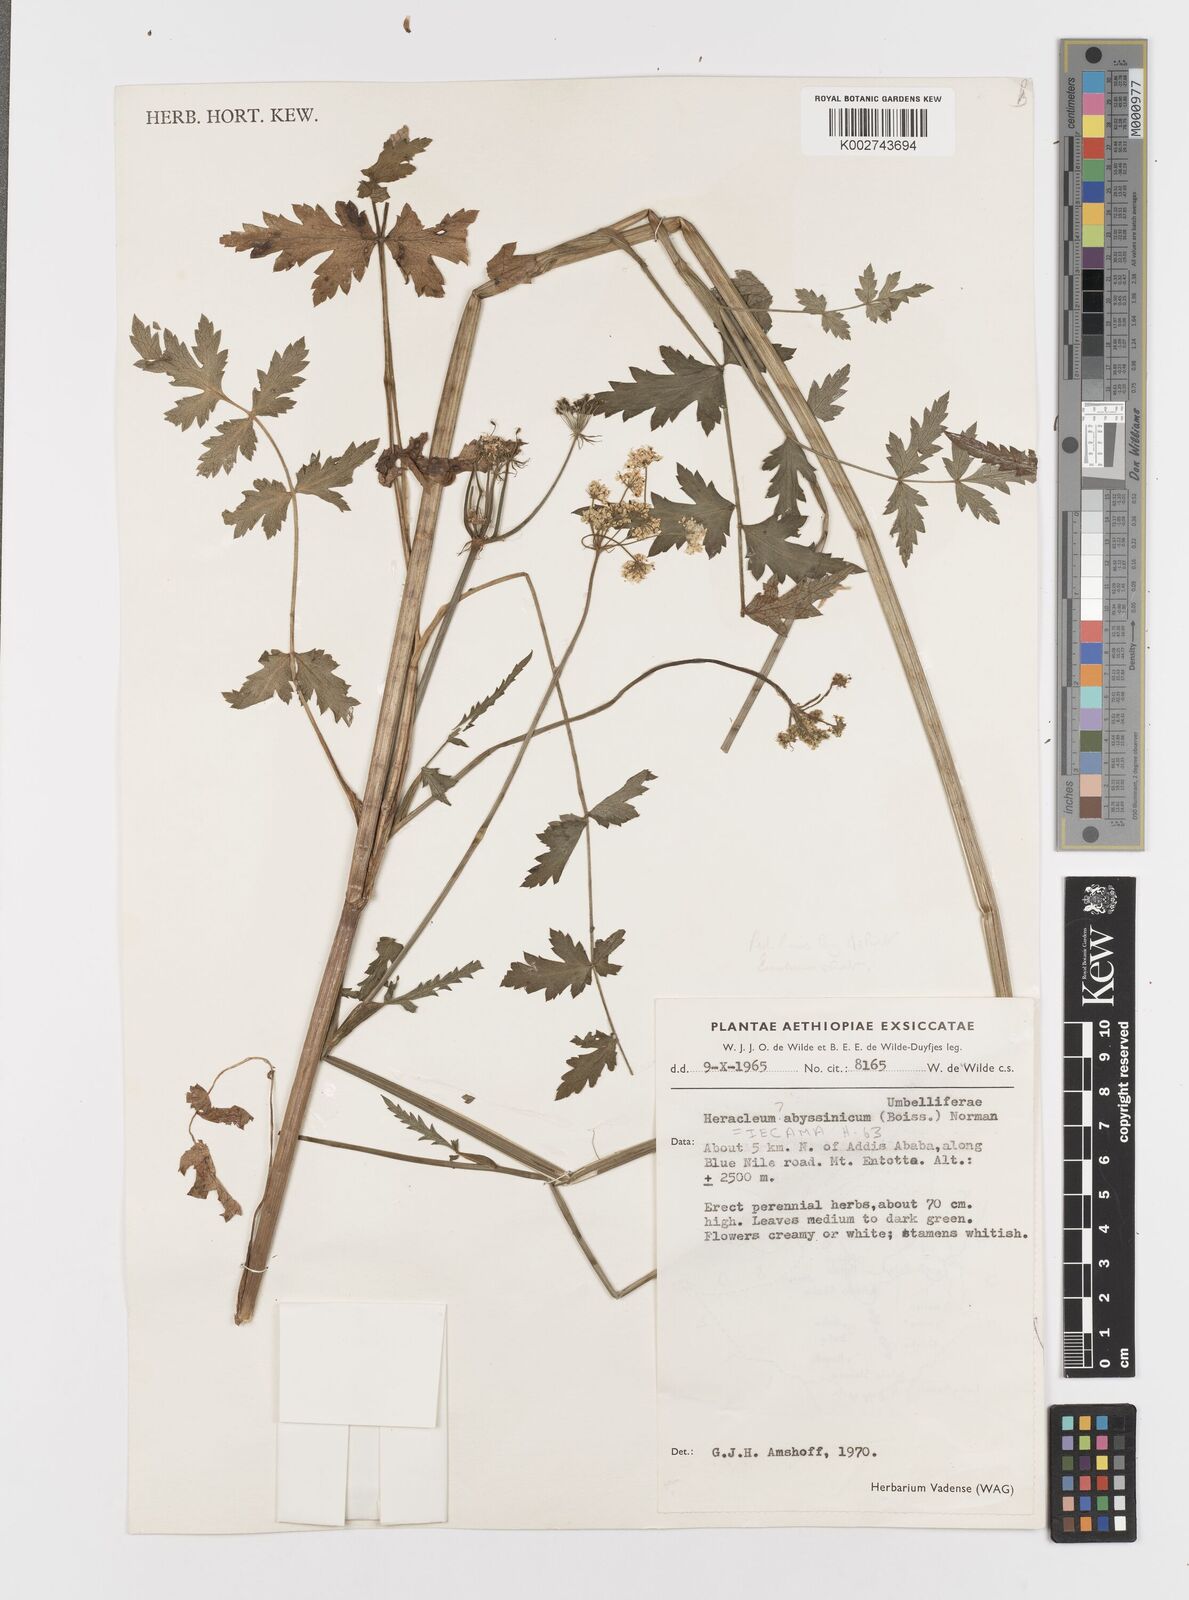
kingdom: Plantae
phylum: Tracheophyta
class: Magnoliopsida
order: Apiales
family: Apiaceae
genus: Heracleum
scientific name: Heracleum abyssinicum
